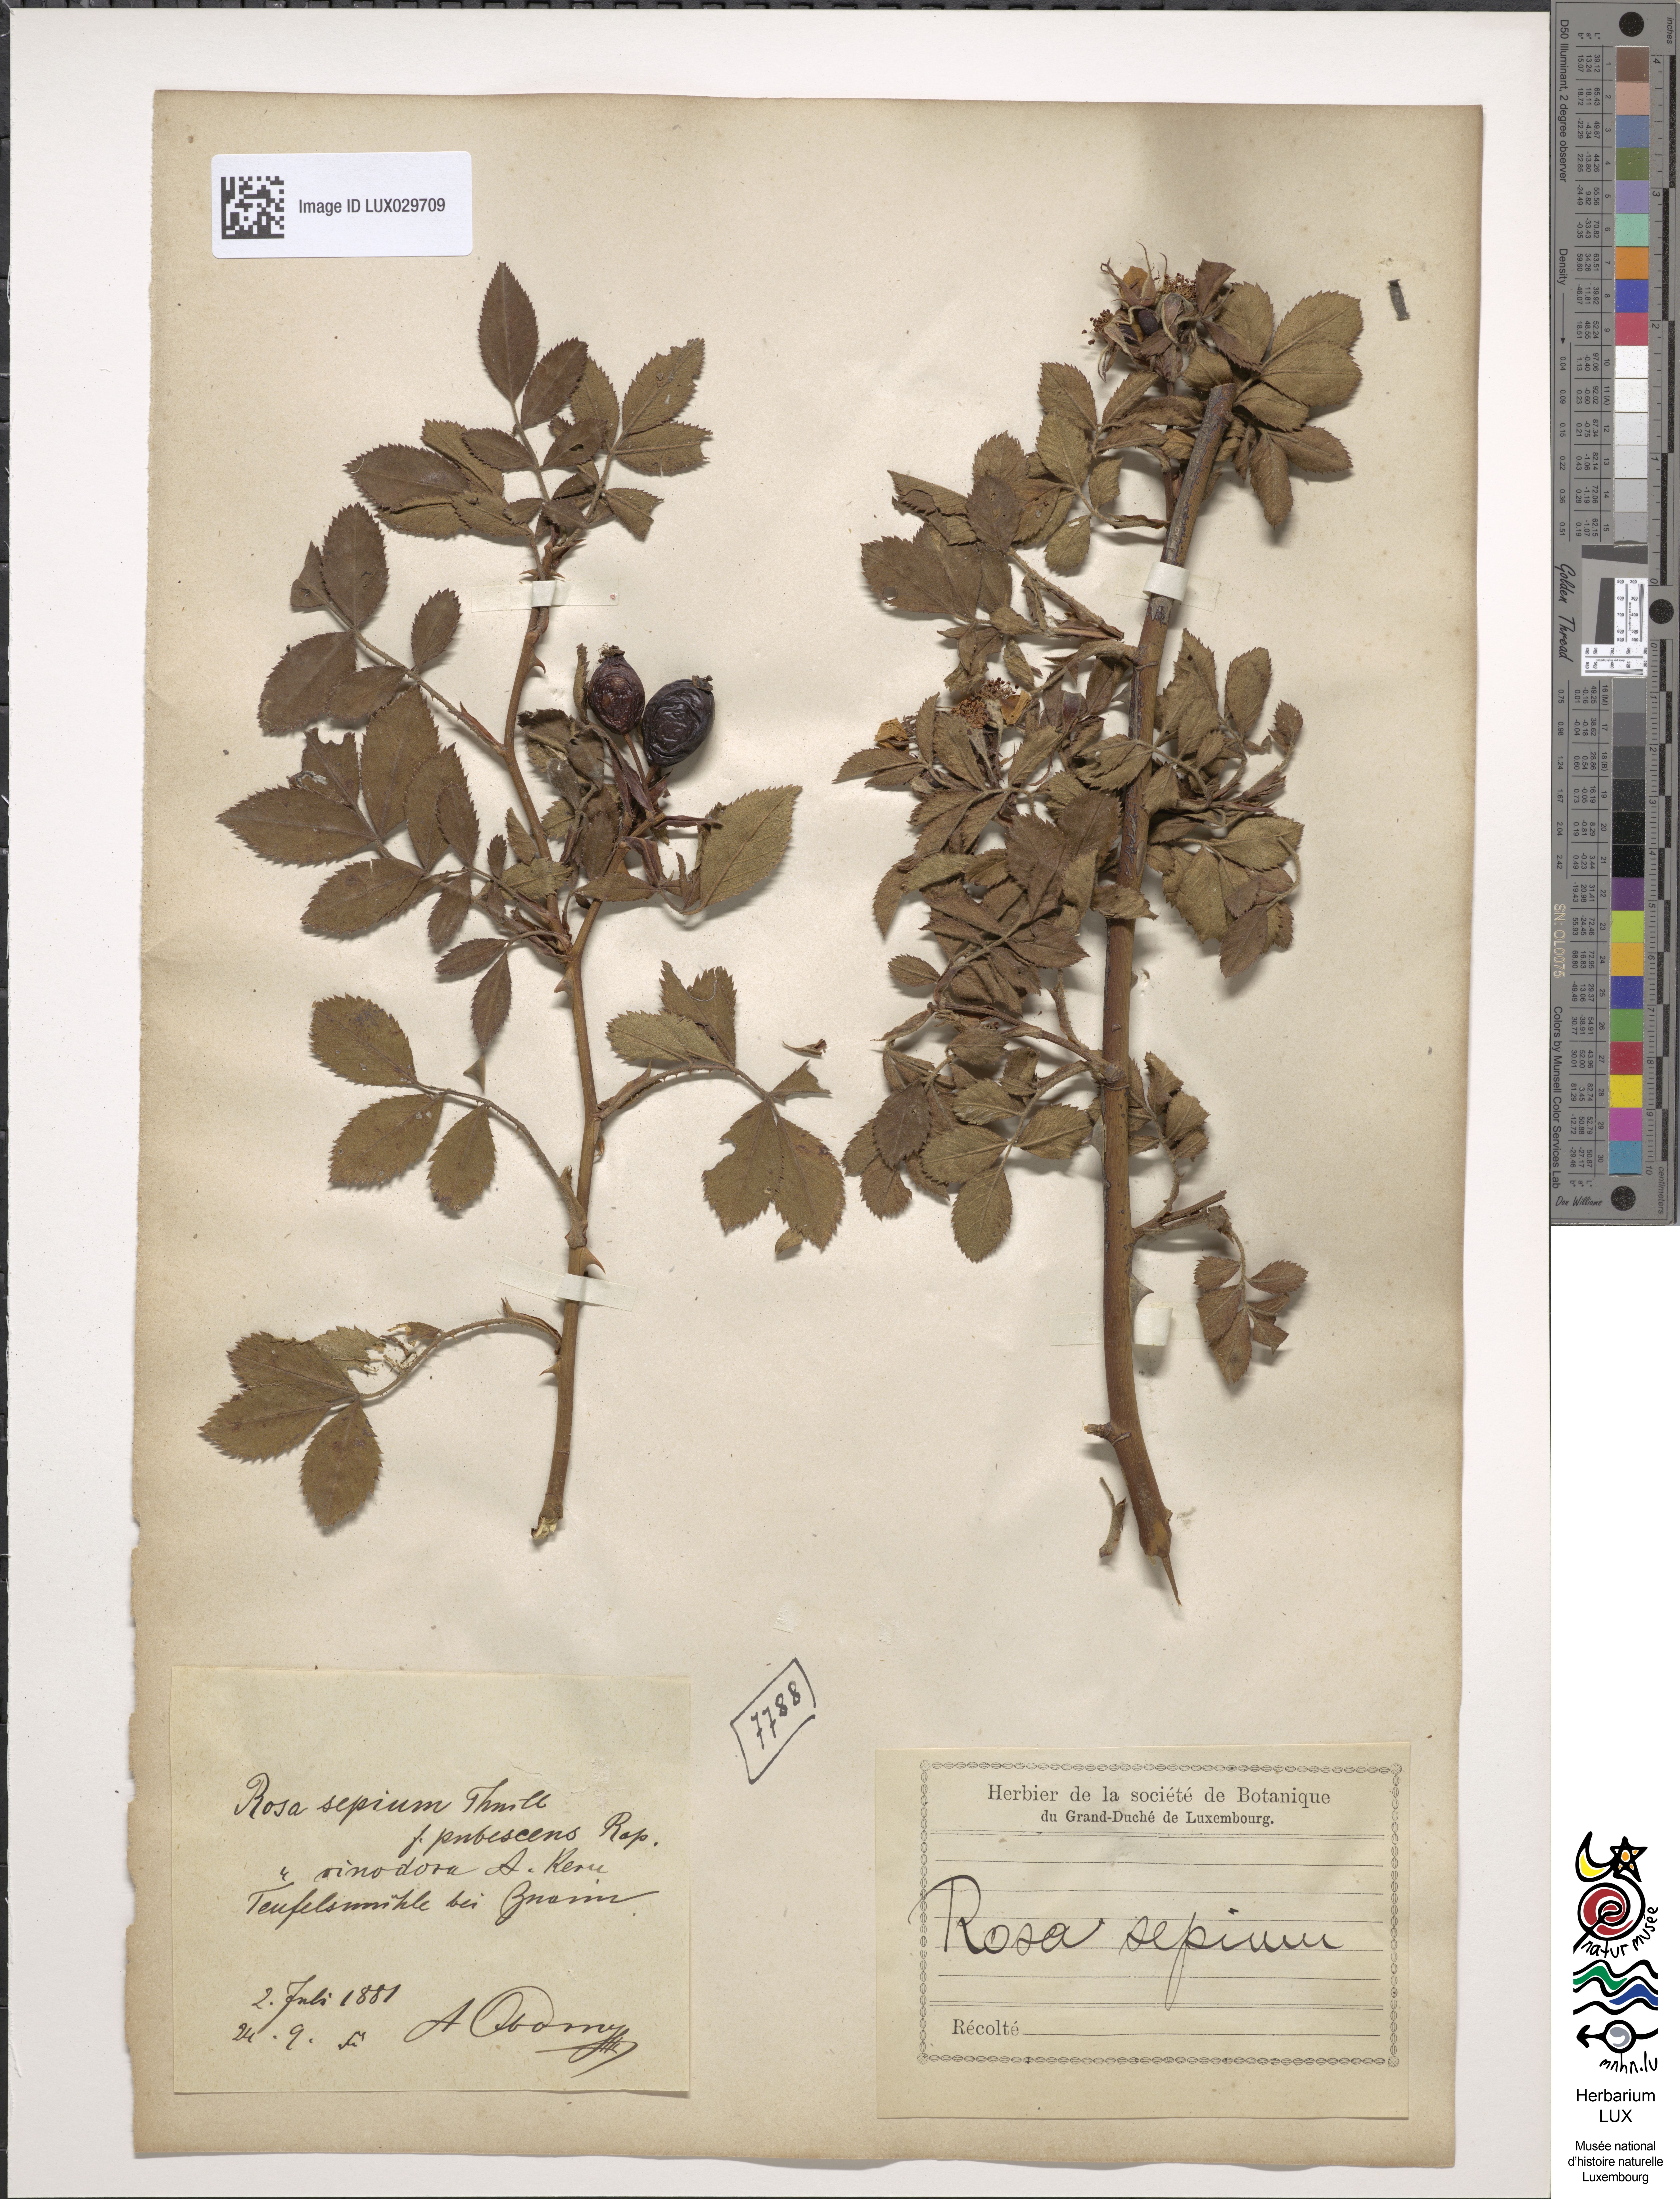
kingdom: Plantae
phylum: Tracheophyta
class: Magnoliopsida
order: Rosales
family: Rosaceae
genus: Rosa
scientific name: Rosa agrestis
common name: Fieldbriar
